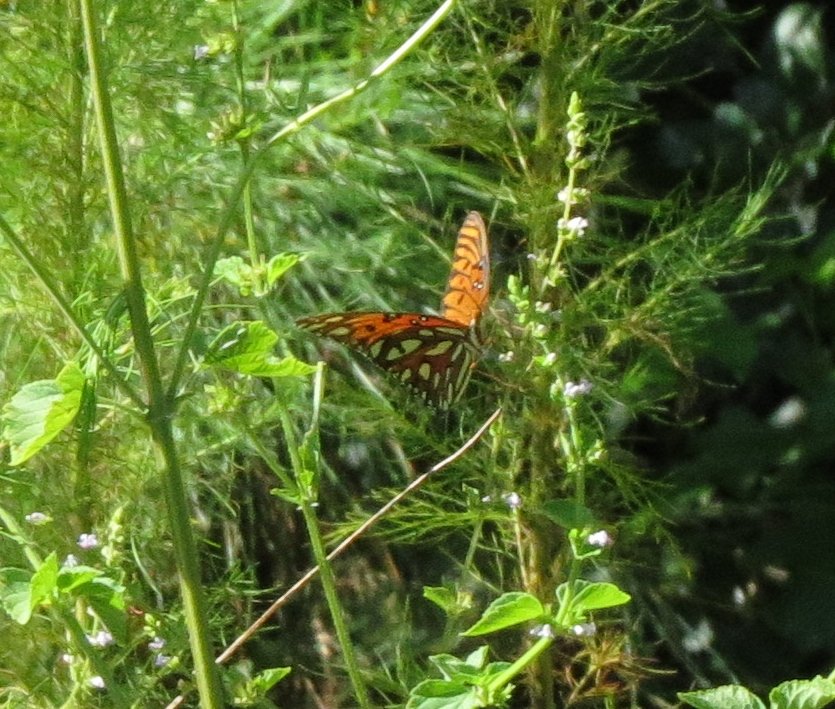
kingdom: Animalia
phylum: Arthropoda
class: Insecta
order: Lepidoptera
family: Nymphalidae
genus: Dione
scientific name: Dione vanillae
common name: Gulf Fritillary
